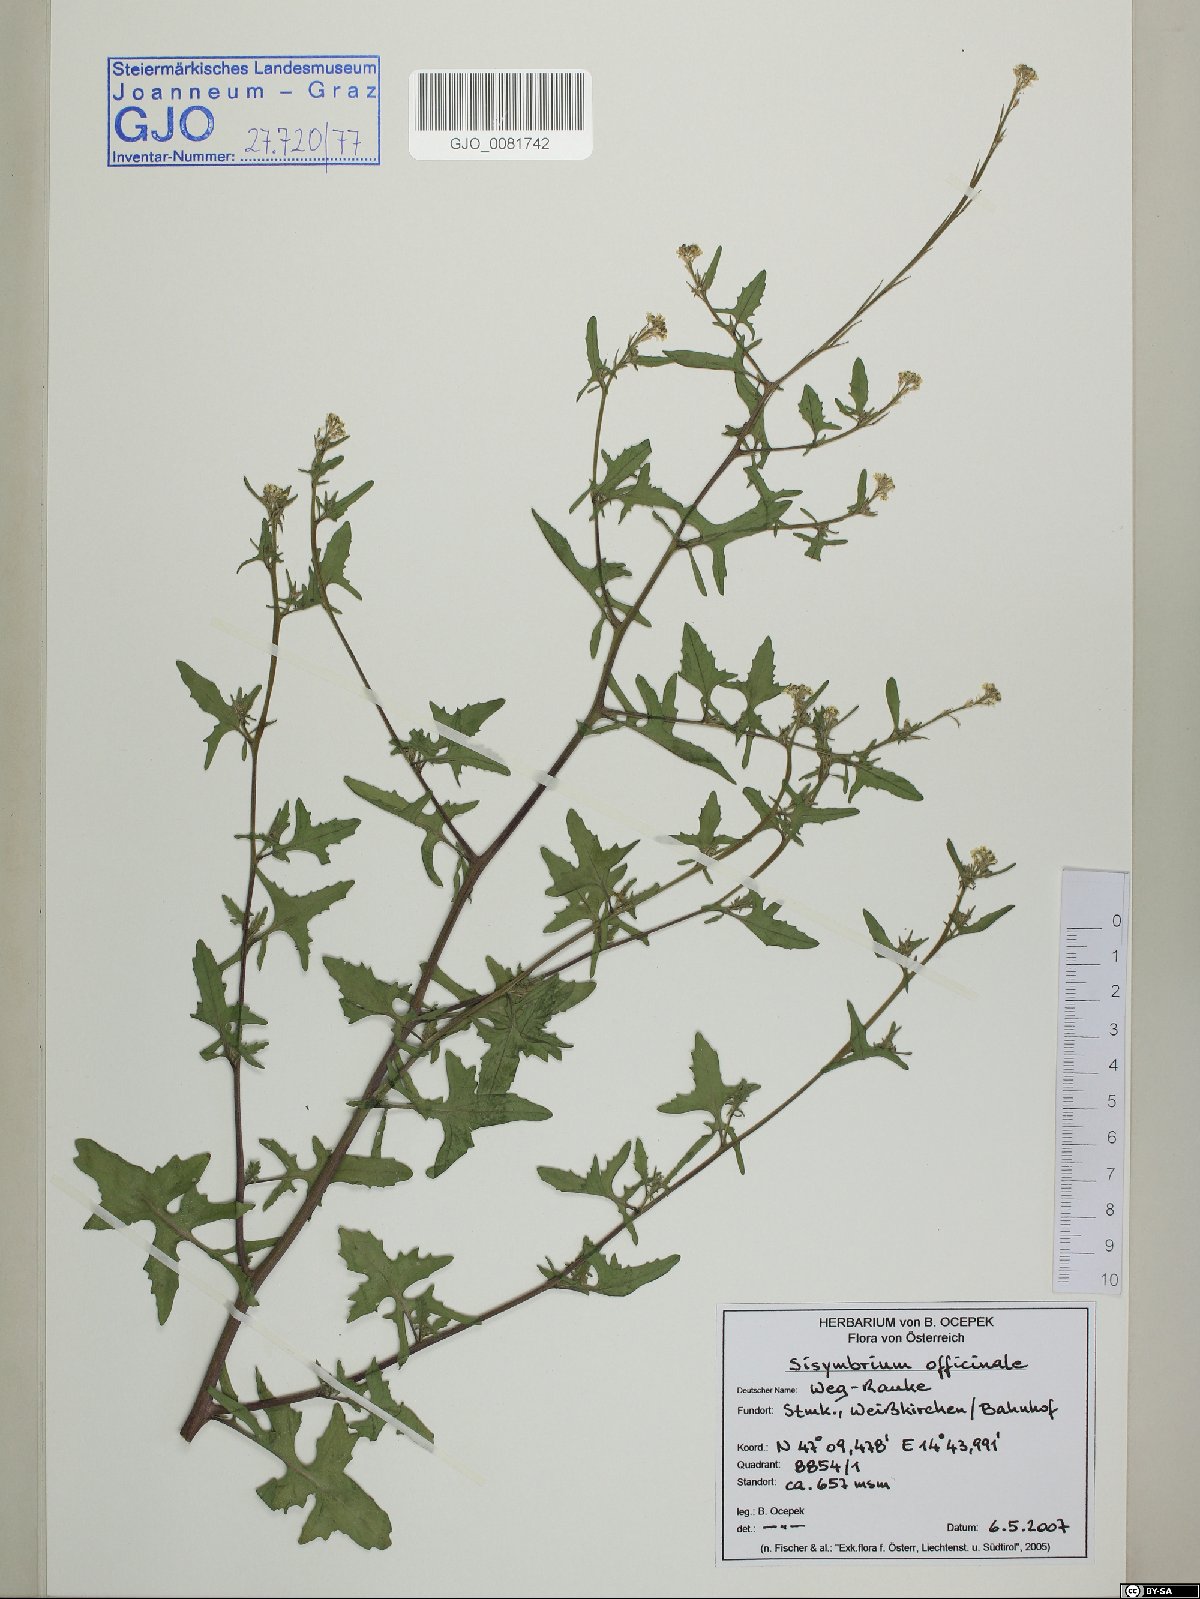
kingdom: Plantae
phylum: Tracheophyta
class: Magnoliopsida
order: Brassicales
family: Brassicaceae
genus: Sisymbrium
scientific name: Sisymbrium officinale
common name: Hedge mustard
